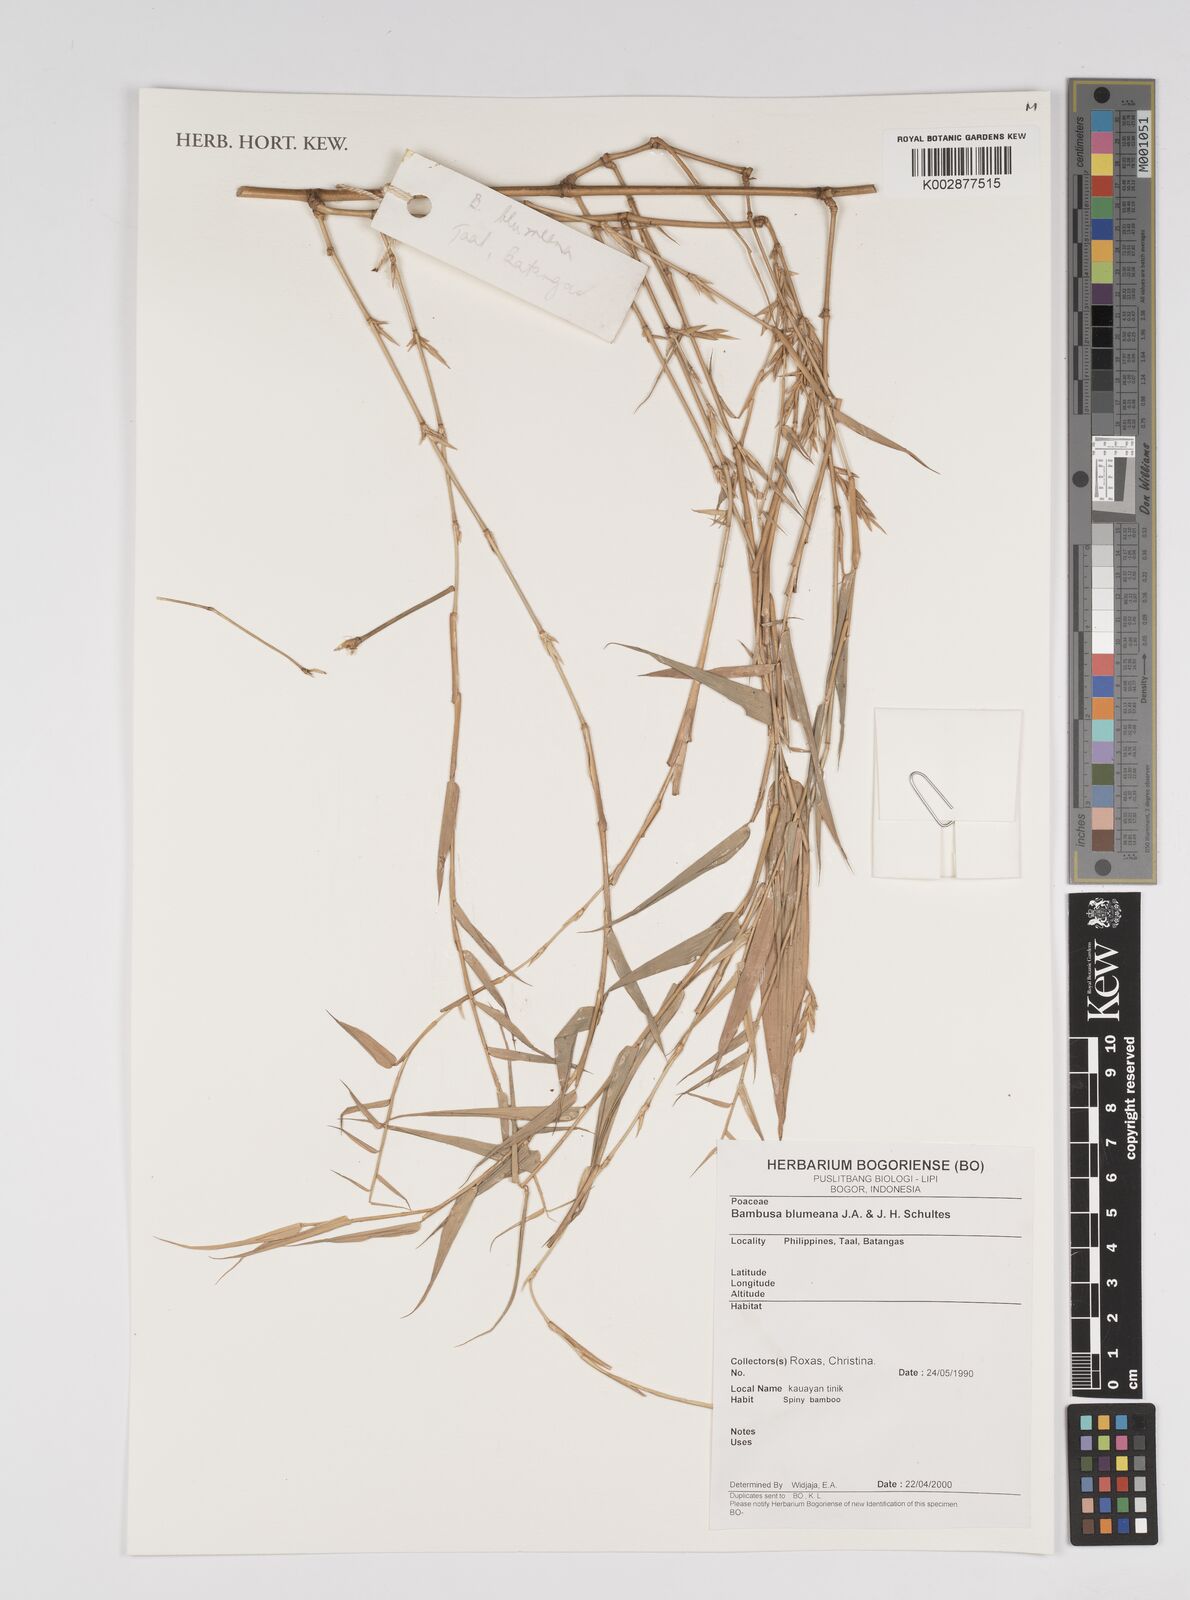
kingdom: Plantae
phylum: Tracheophyta
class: Liliopsida
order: Poales
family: Poaceae
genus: Bambusa
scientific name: Bambusa spinosa
